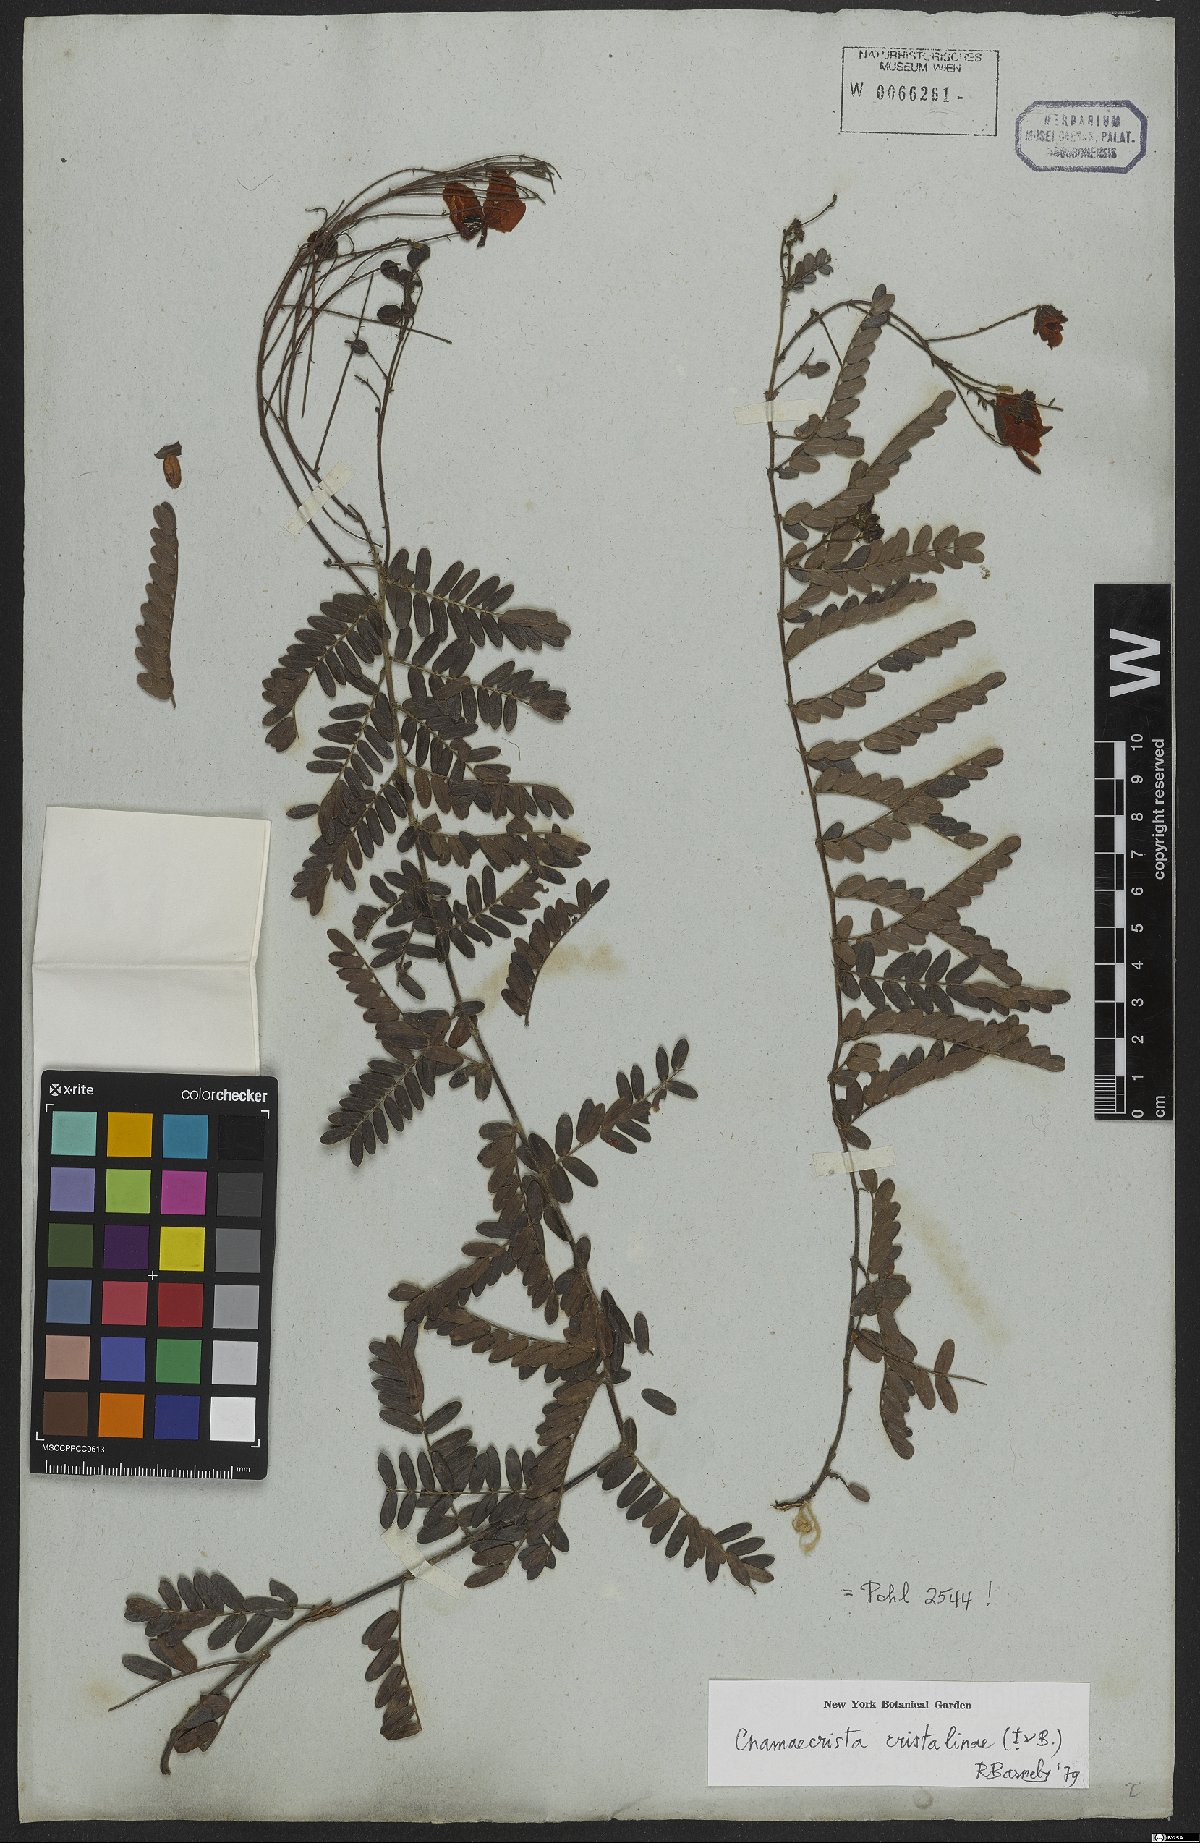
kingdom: Plantae
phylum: Tracheophyta
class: Magnoliopsida
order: Fabales
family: Fabaceae
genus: Chamaecrista
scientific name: Chamaecrista cristalinae
